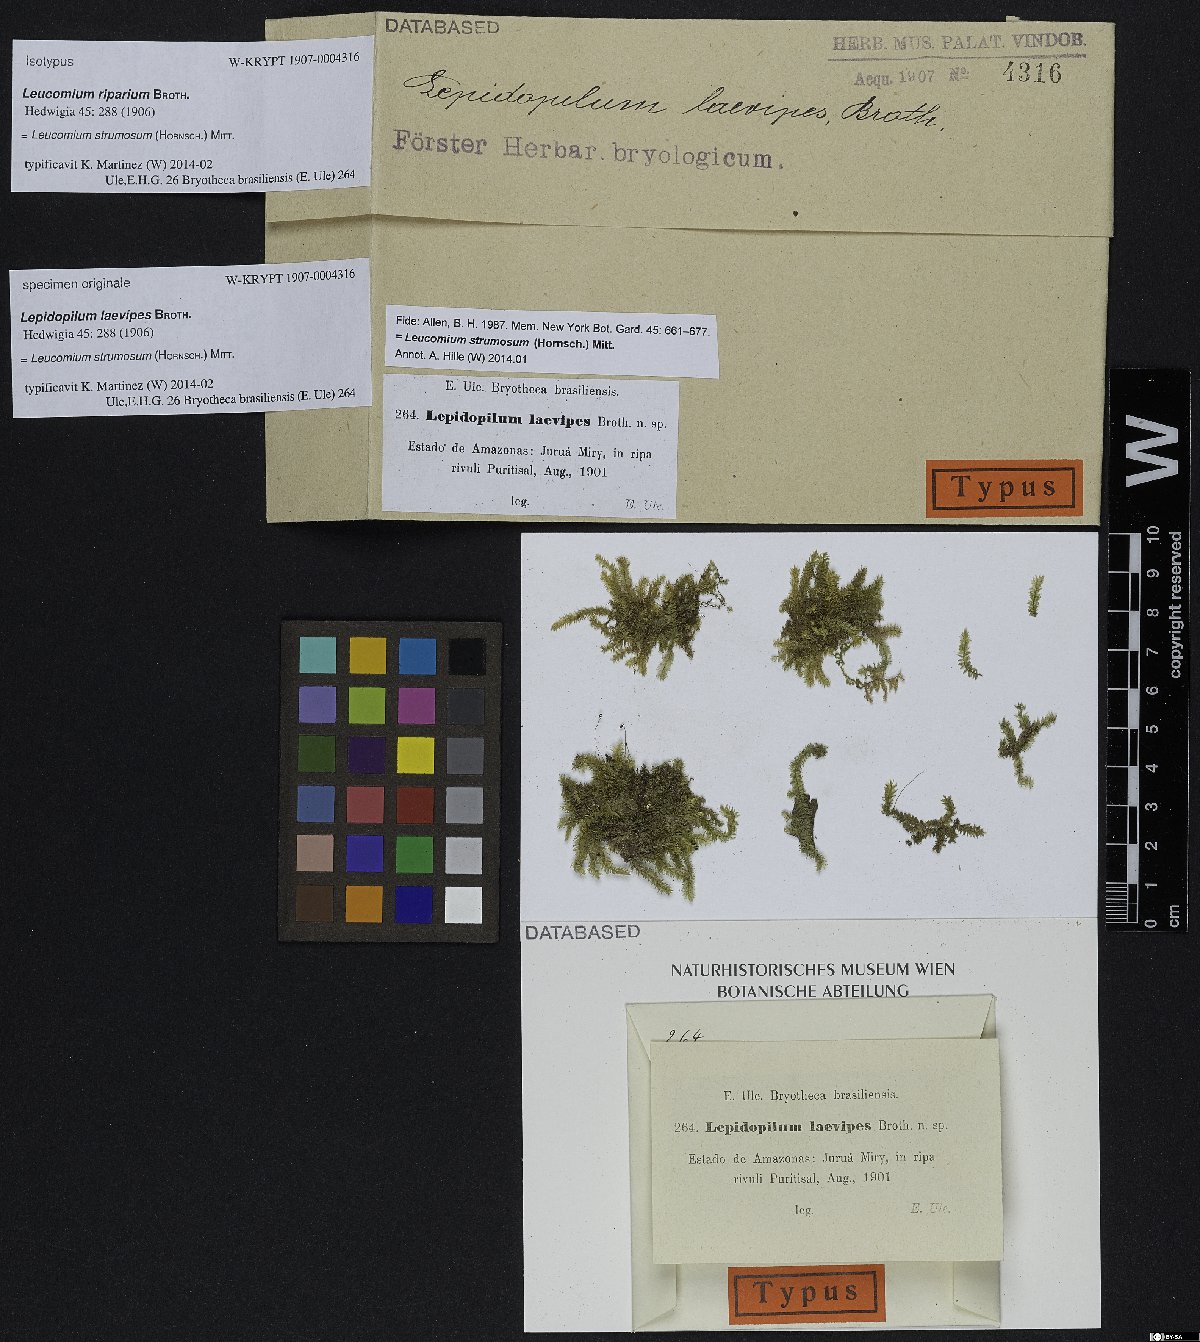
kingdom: Plantae
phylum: Bryophyta
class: Bryopsida
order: Hookeriales
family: Leucomiaceae
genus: Leucomium
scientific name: Leucomium strumosum
